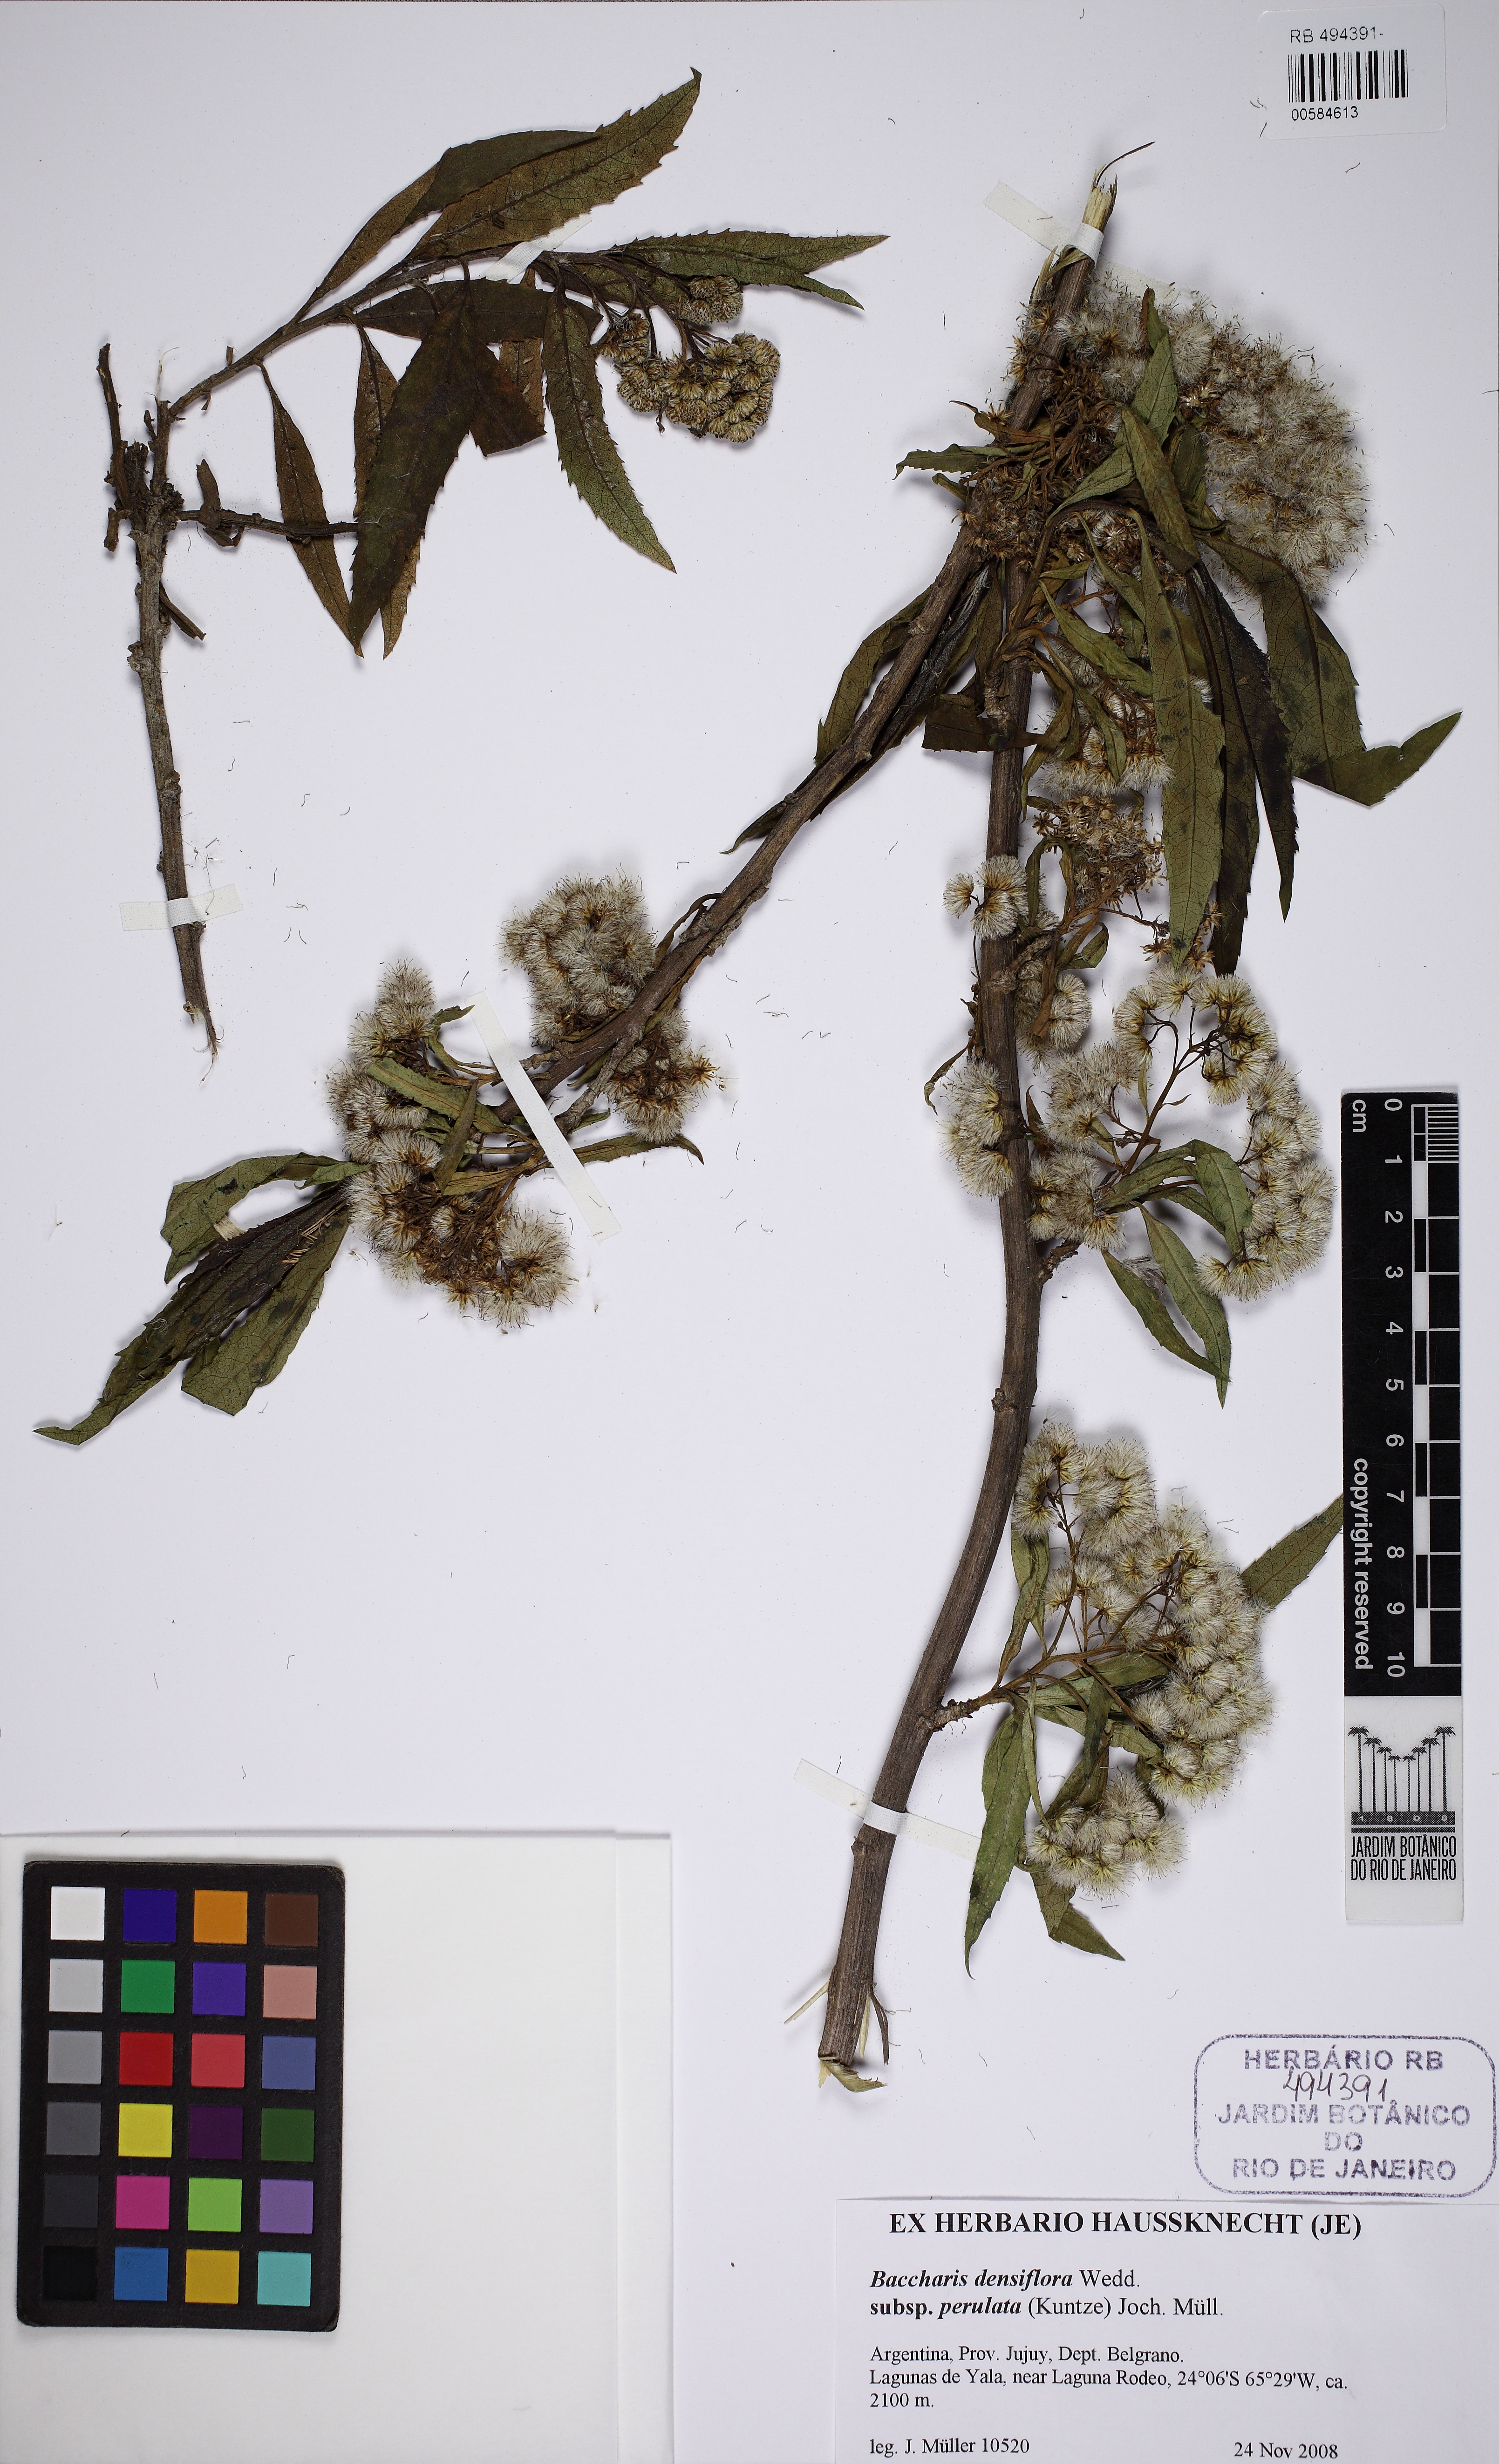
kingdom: Plantae
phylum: Tracheophyta
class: Magnoliopsida
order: Asterales
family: Asteraceae
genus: Baccharis
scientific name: Baccharis densiflora
